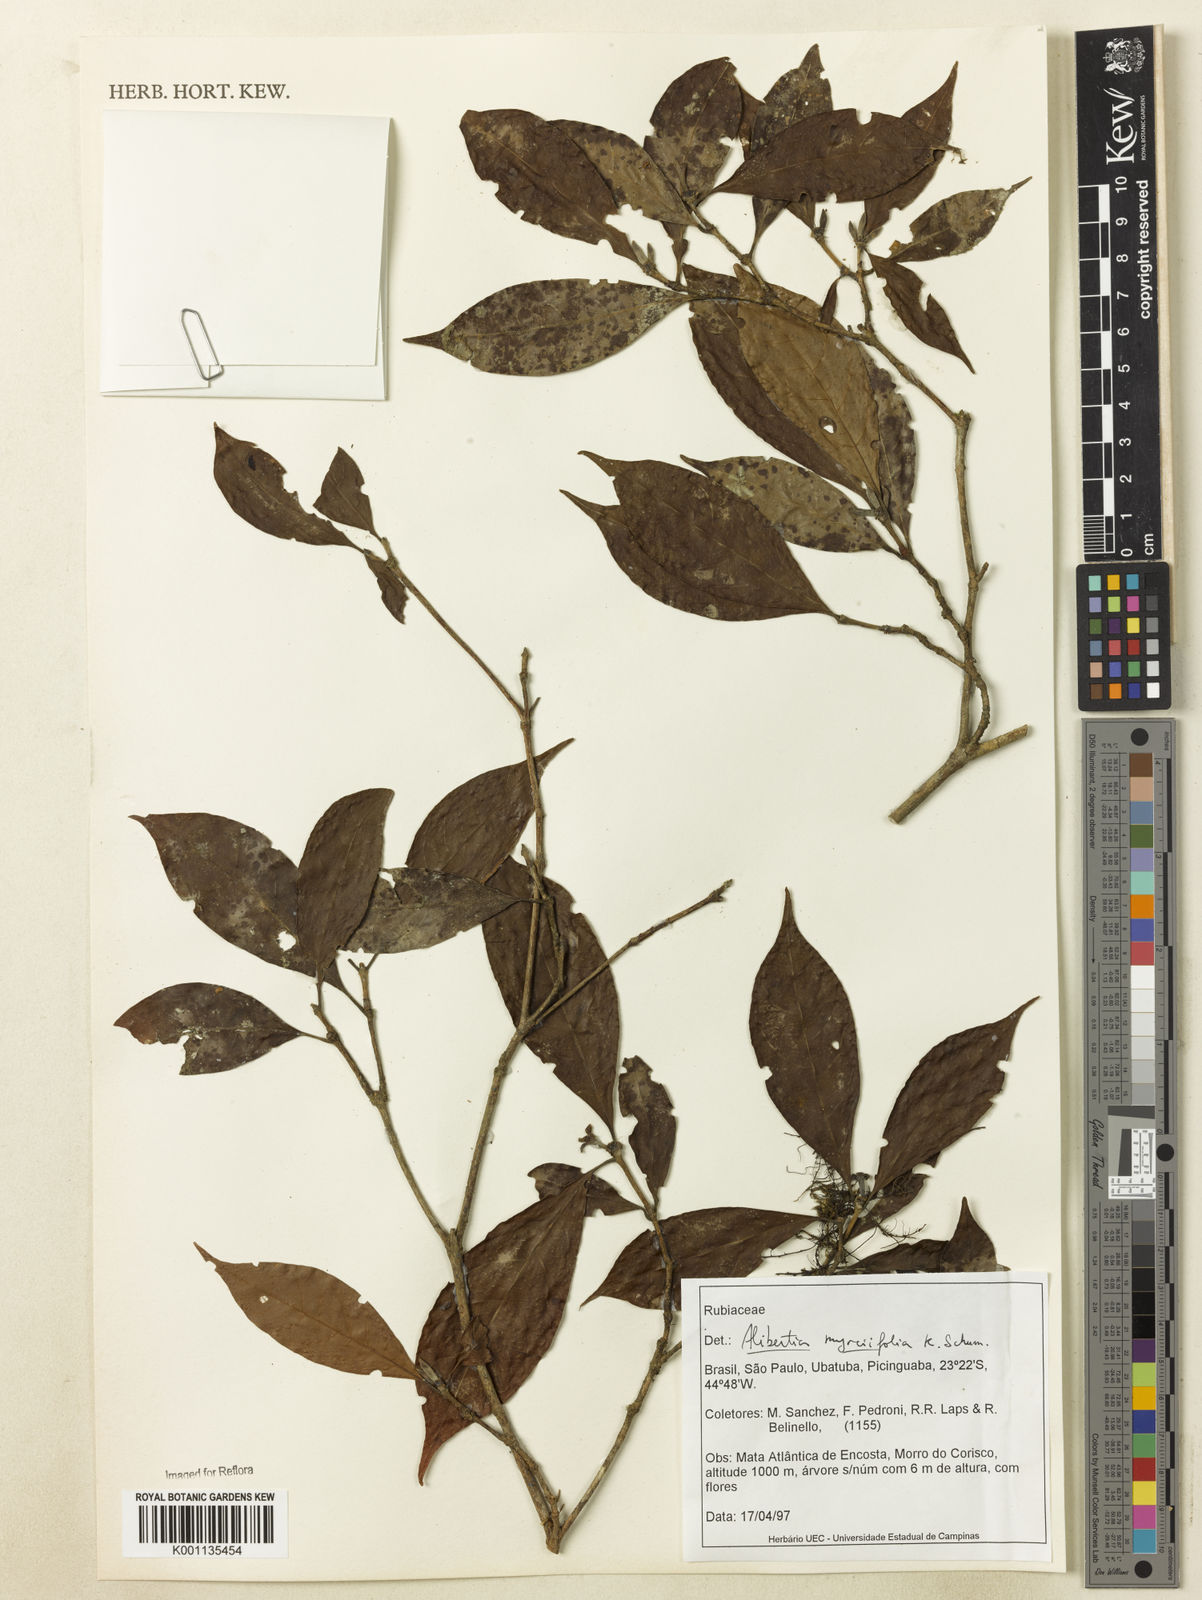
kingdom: Plantae
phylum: Tracheophyta
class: Magnoliopsida
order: Gentianales
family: Rubiaceae
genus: Cordiera
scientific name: Cordiera myrciifolia
